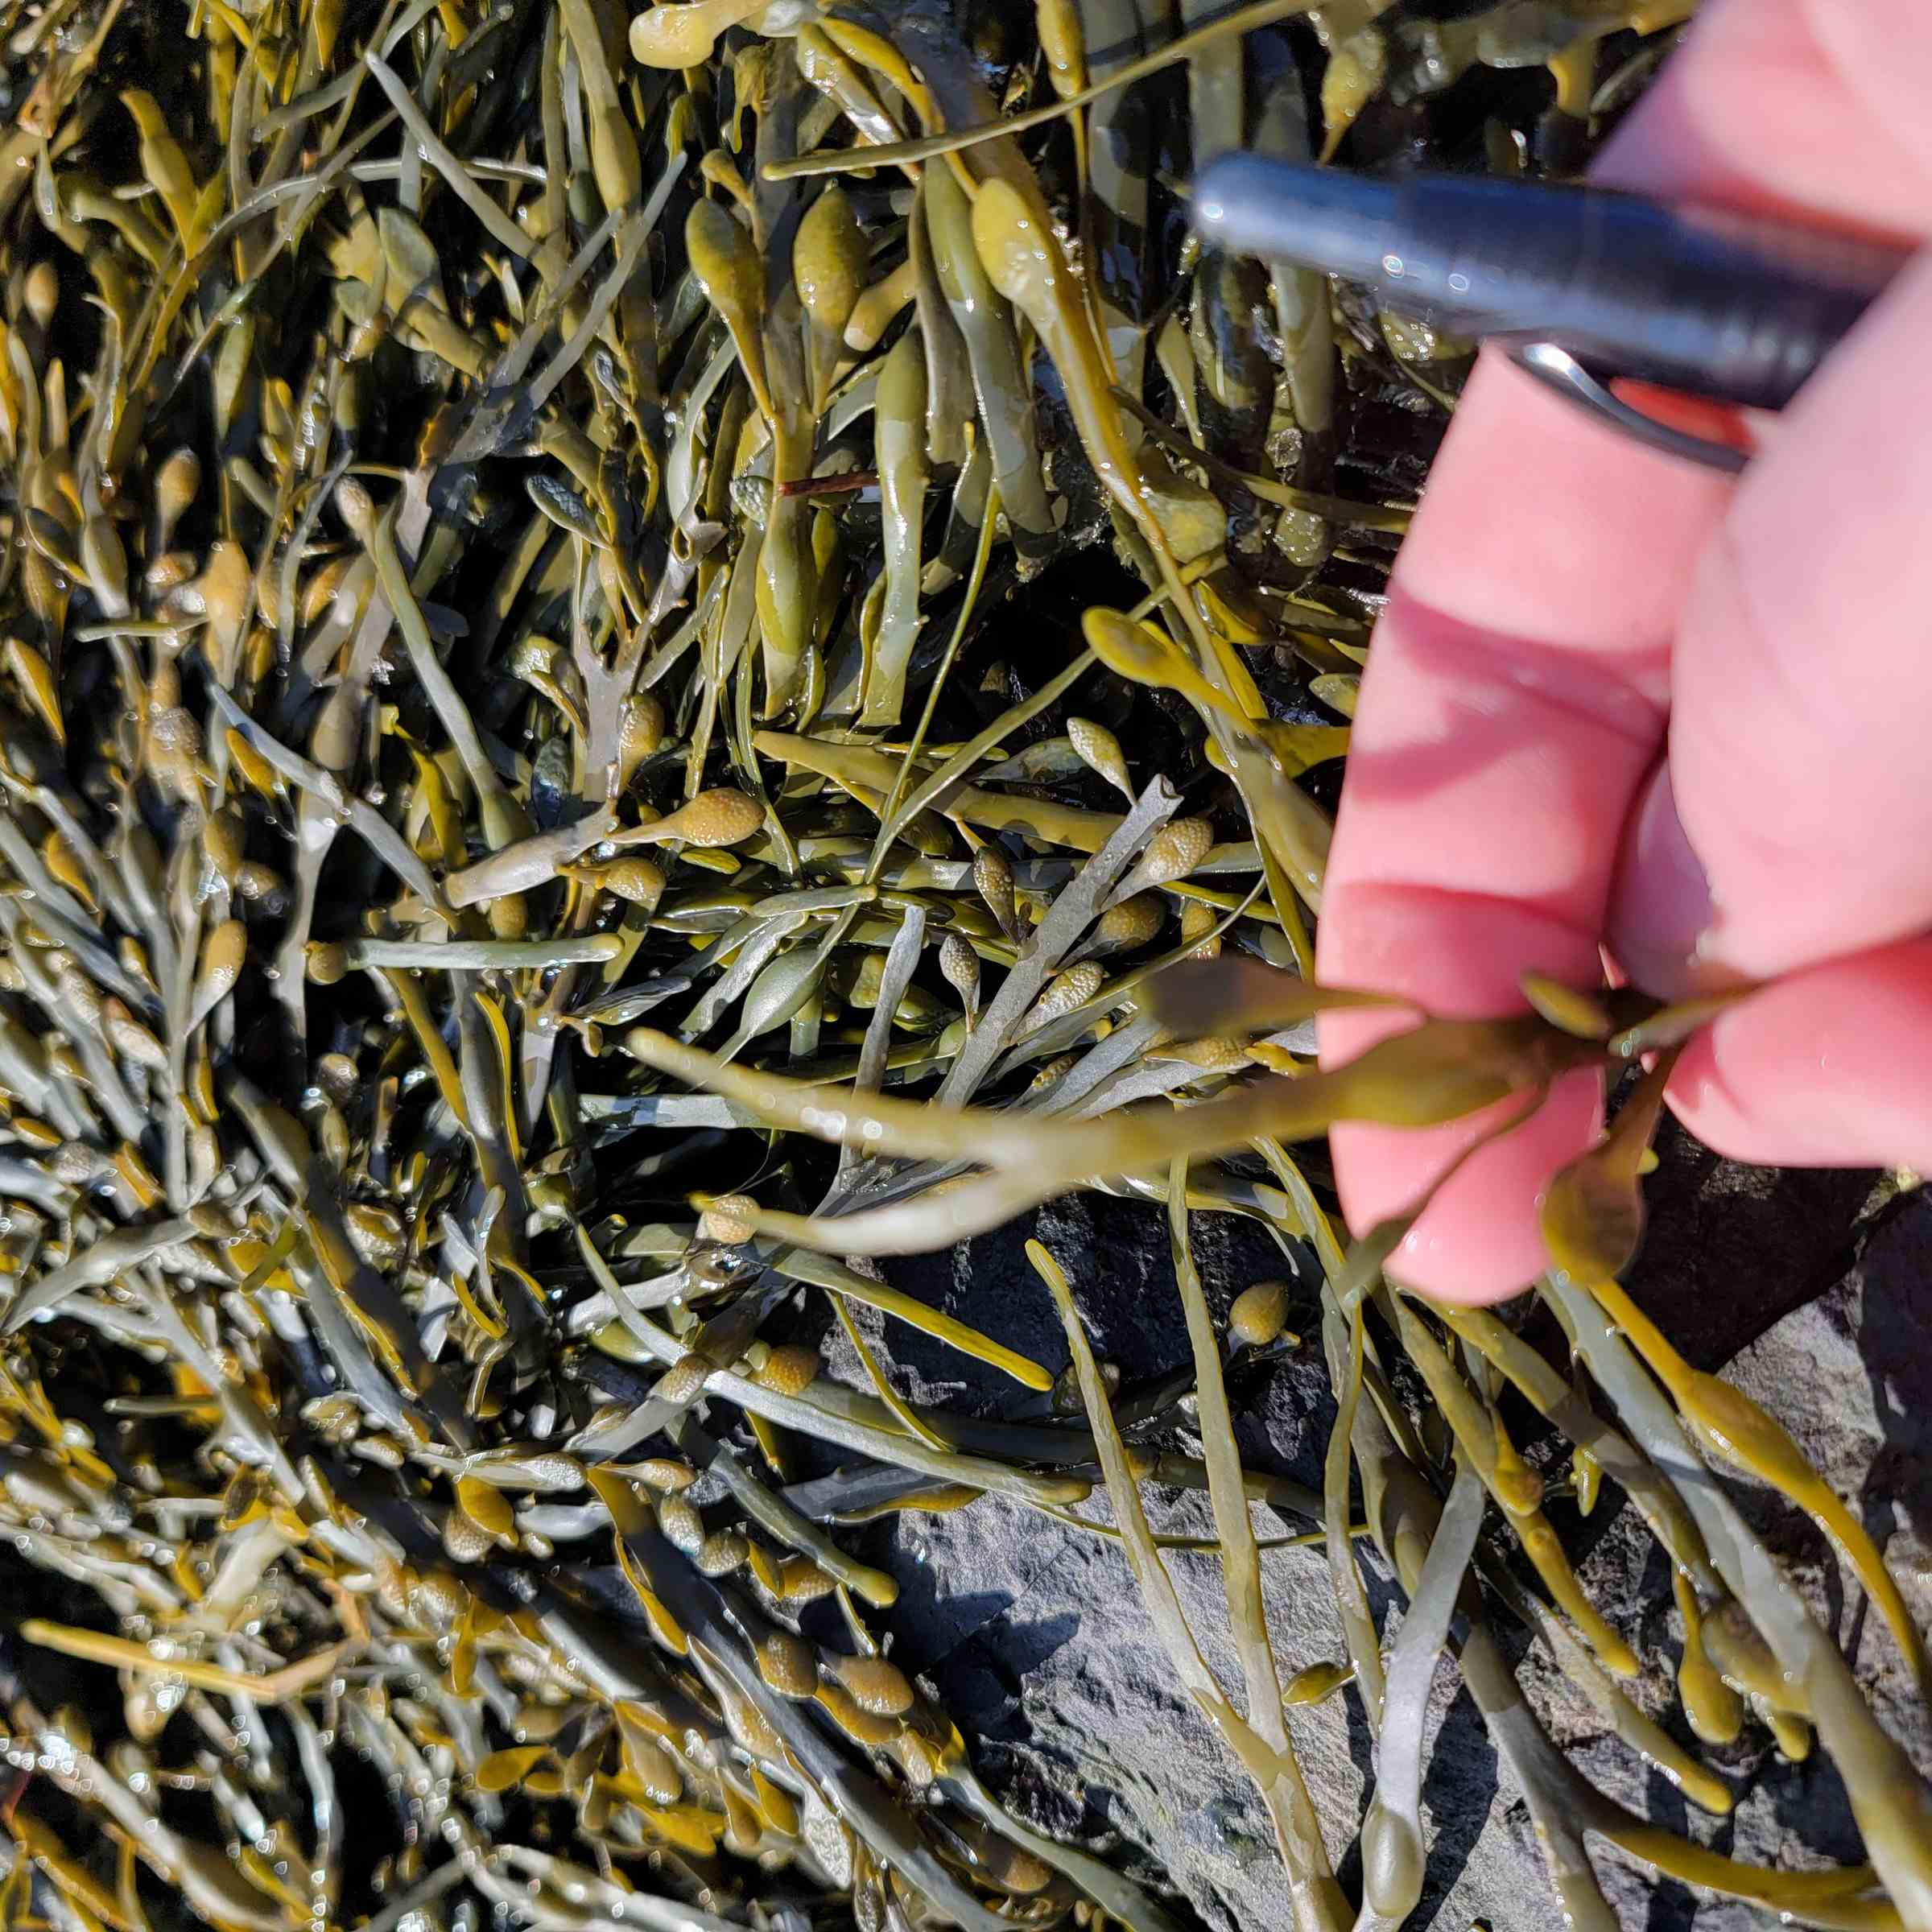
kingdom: Chromista
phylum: Ochrophyta
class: Phaeophyceae
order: Fucales
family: Fucaceae
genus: Ascophyllum
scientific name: Ascophyllum nodosum
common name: Rockweed
